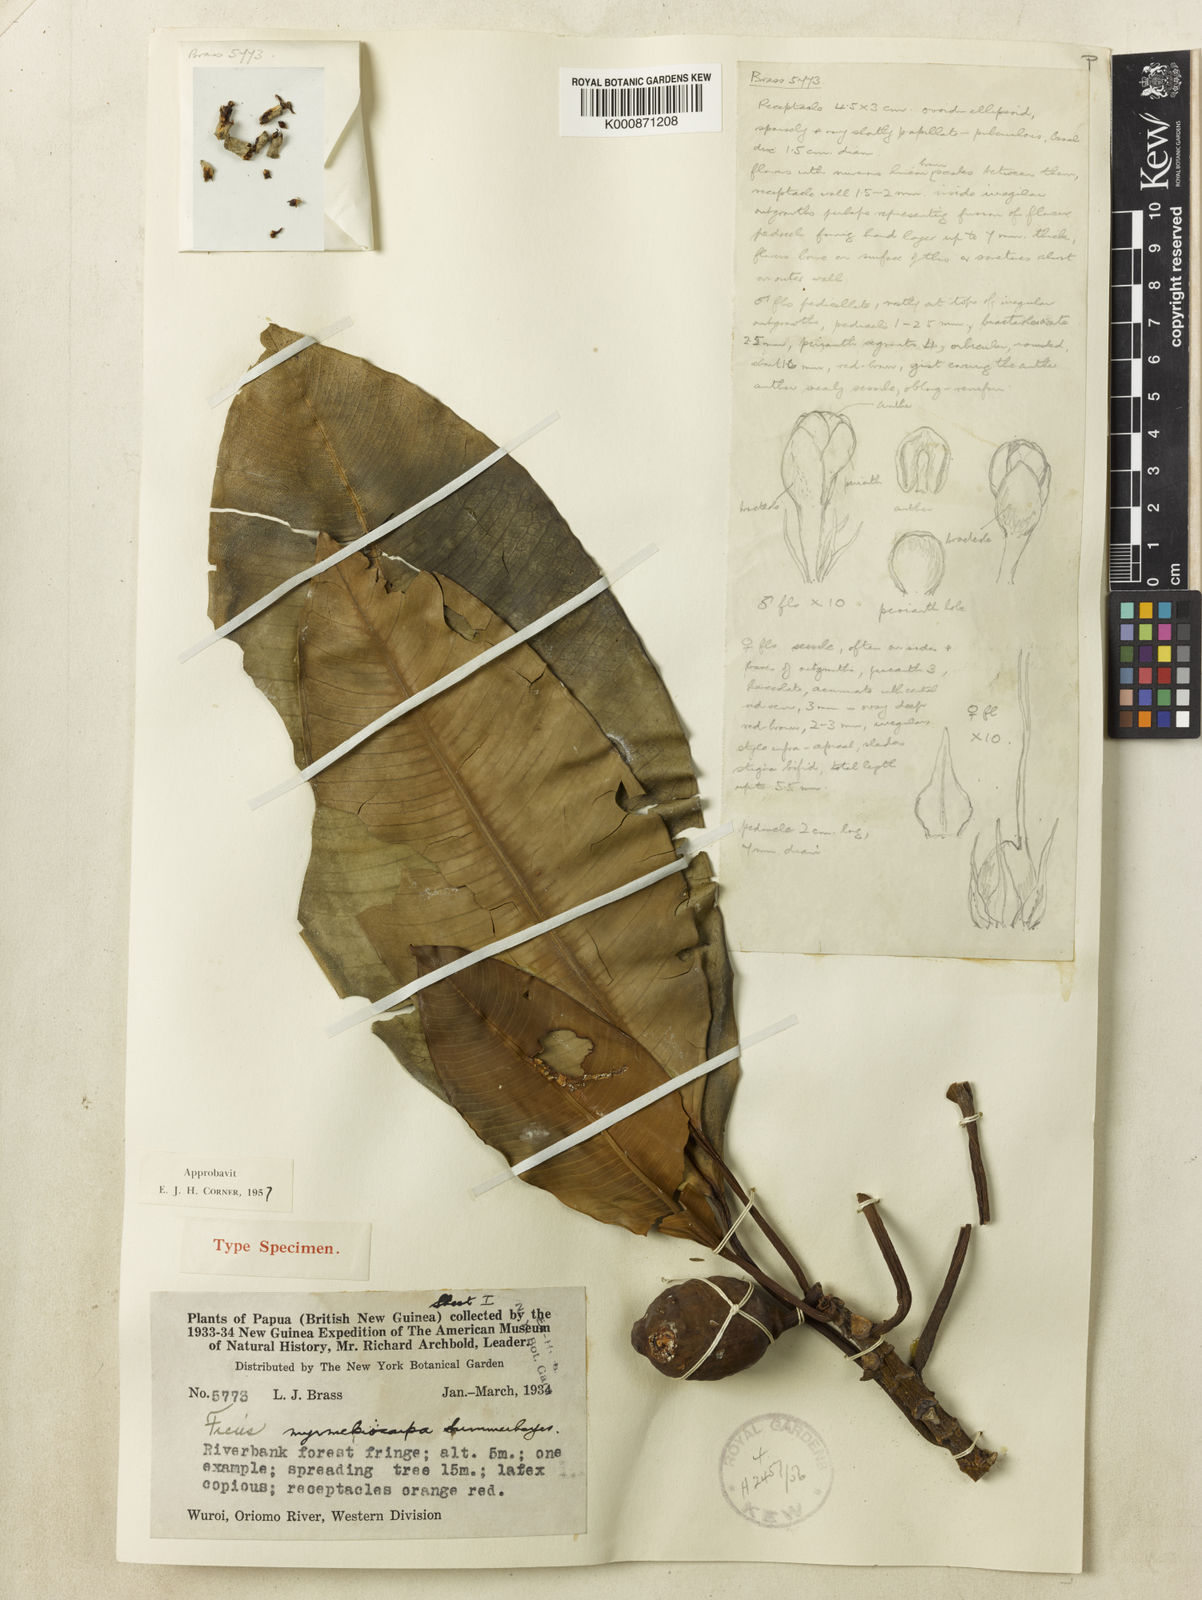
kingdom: Plantae
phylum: Tracheophyta
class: Magnoliopsida
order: Rosales
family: Moraceae
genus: Ficus
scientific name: Ficus hesperidiiformis
